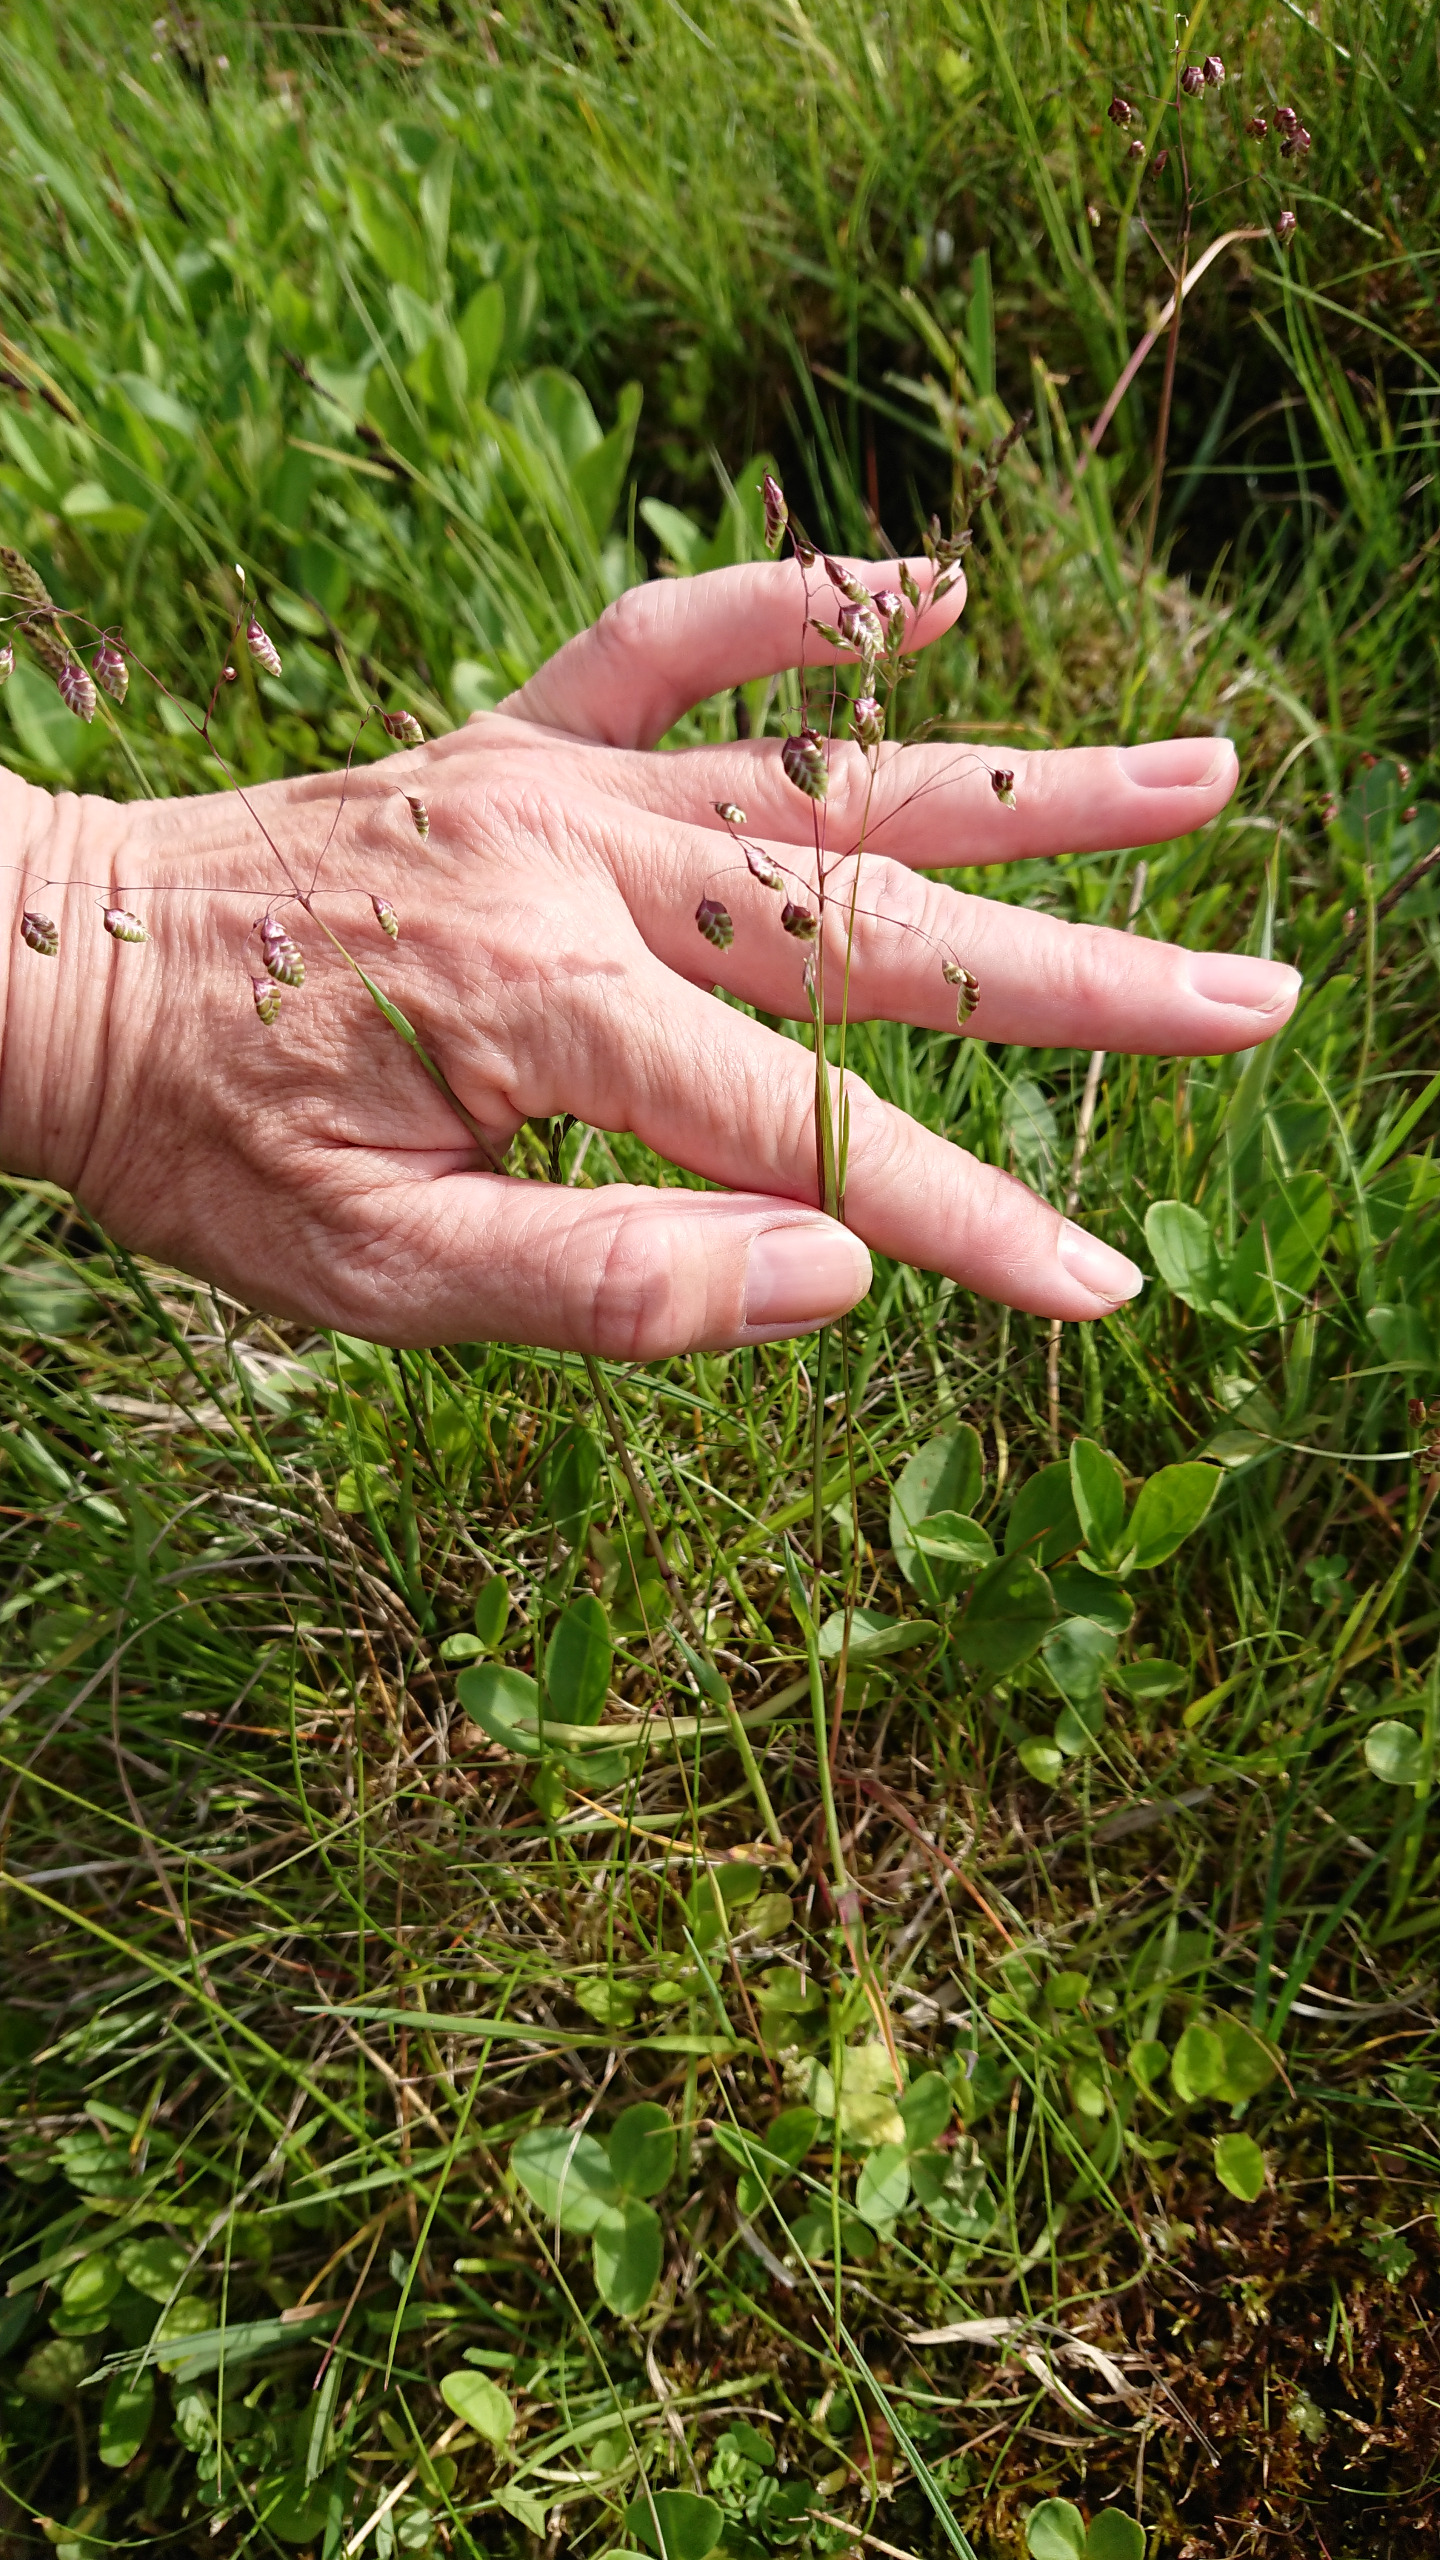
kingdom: Plantae
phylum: Tracheophyta
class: Liliopsida
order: Poales
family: Poaceae
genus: Briza
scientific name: Briza media
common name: Hjertegræs
